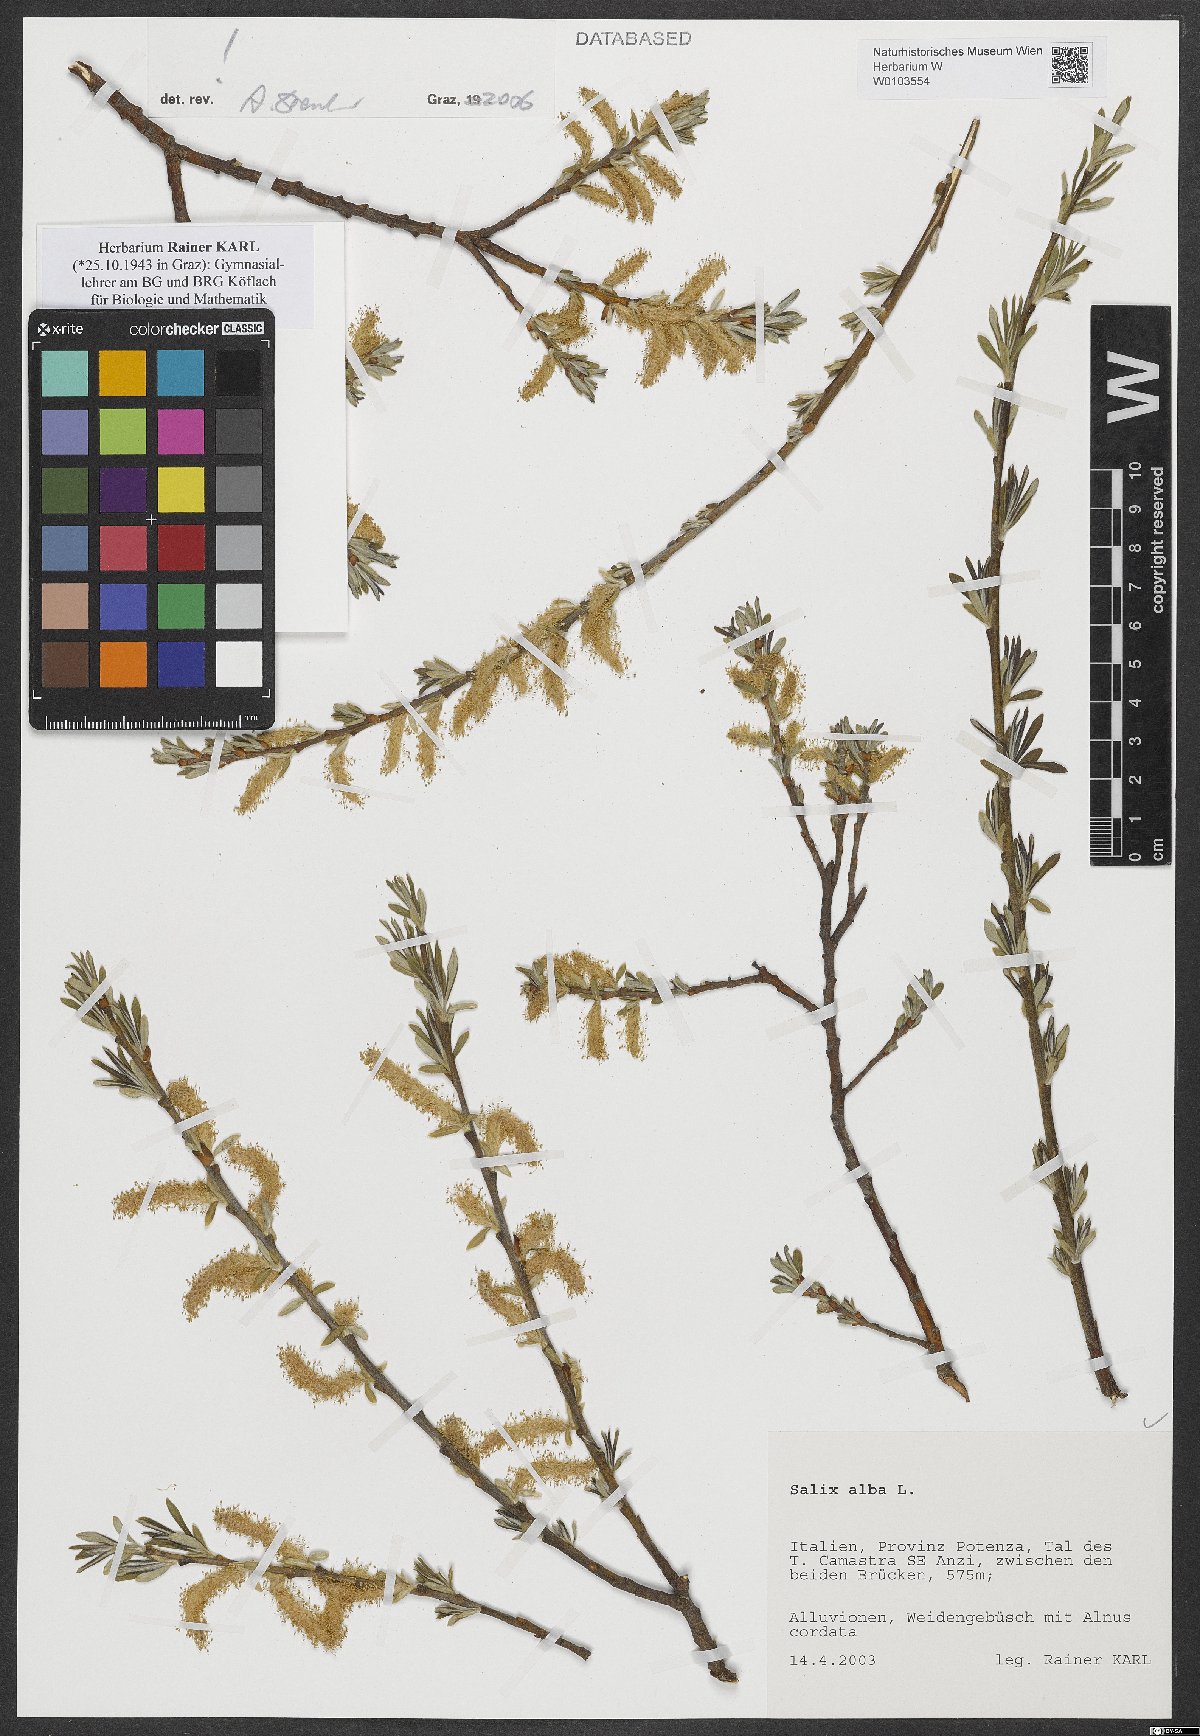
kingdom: Plantae
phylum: Tracheophyta
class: Magnoliopsida
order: Malpighiales
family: Salicaceae
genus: Salix
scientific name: Salix alba
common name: White willow
